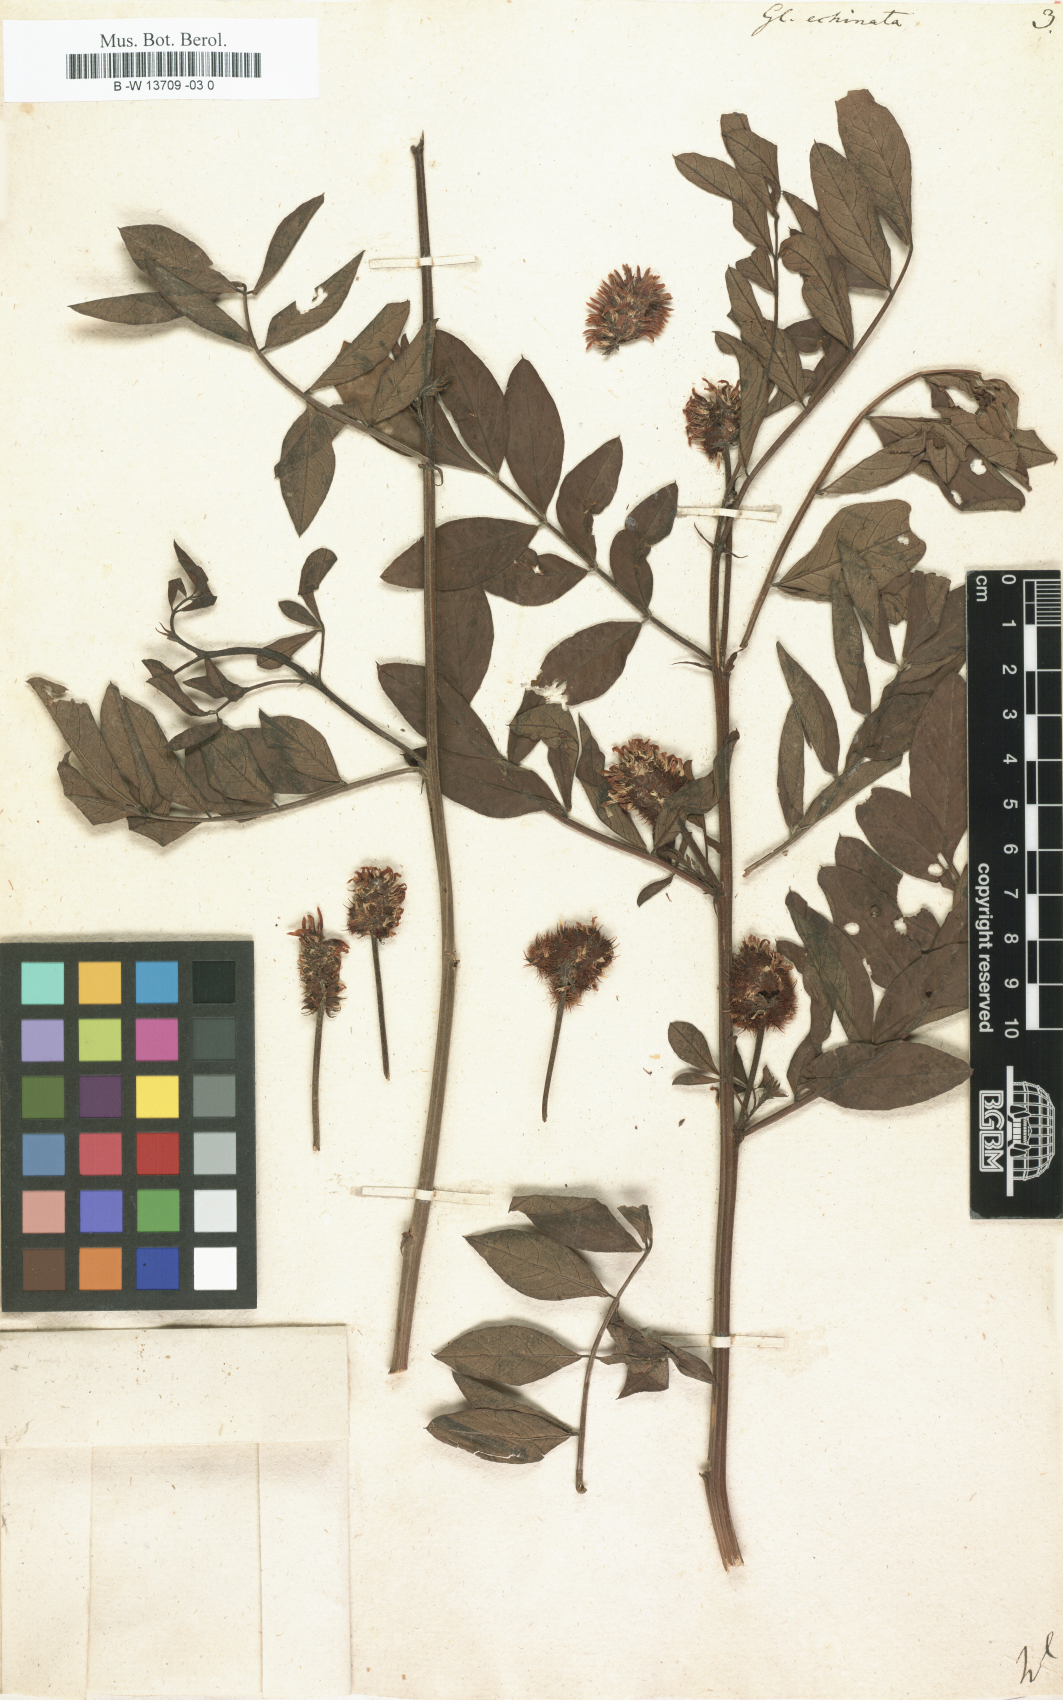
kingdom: Plantae
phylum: Tracheophyta
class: Magnoliopsida
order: Fabales
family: Fabaceae
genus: Glycyrrhiza
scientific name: Glycyrrhiza echinata
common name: German liquorice
